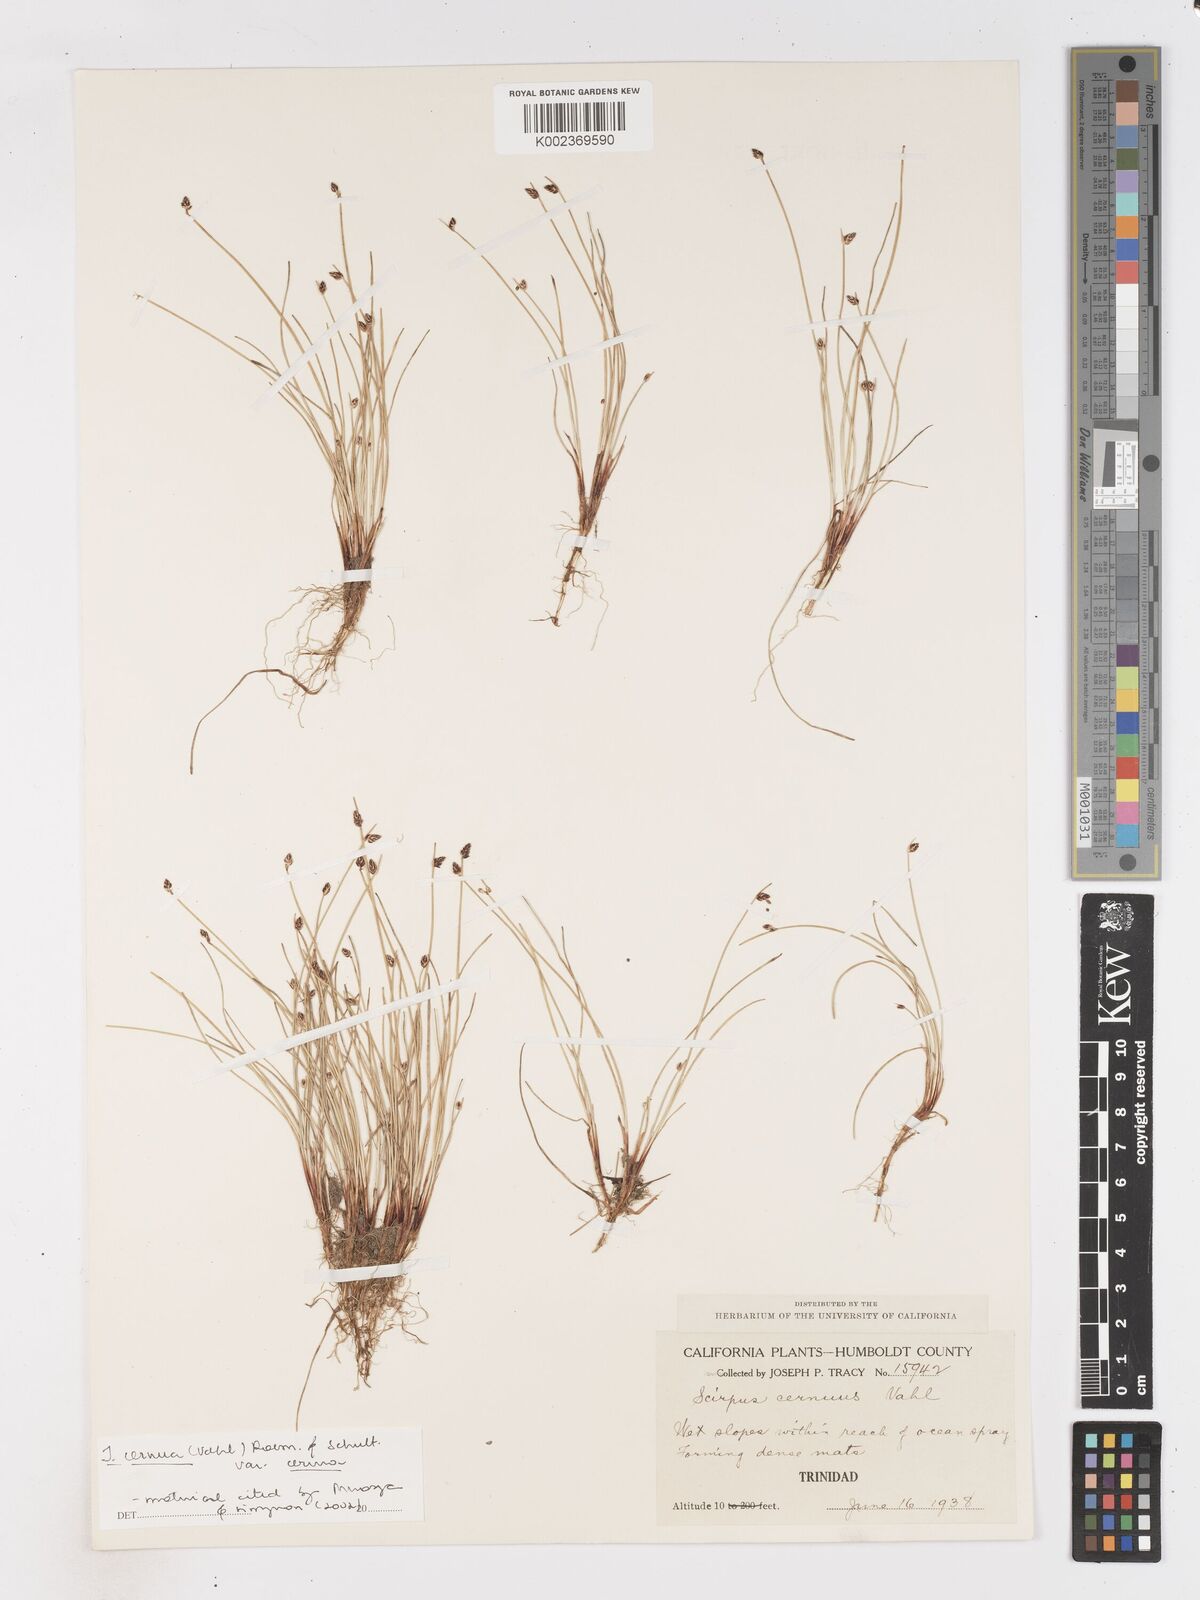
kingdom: Plantae
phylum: Tracheophyta
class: Liliopsida
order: Poales
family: Cyperaceae
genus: Isolepis
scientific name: Isolepis cernua
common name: Slender club-rush
